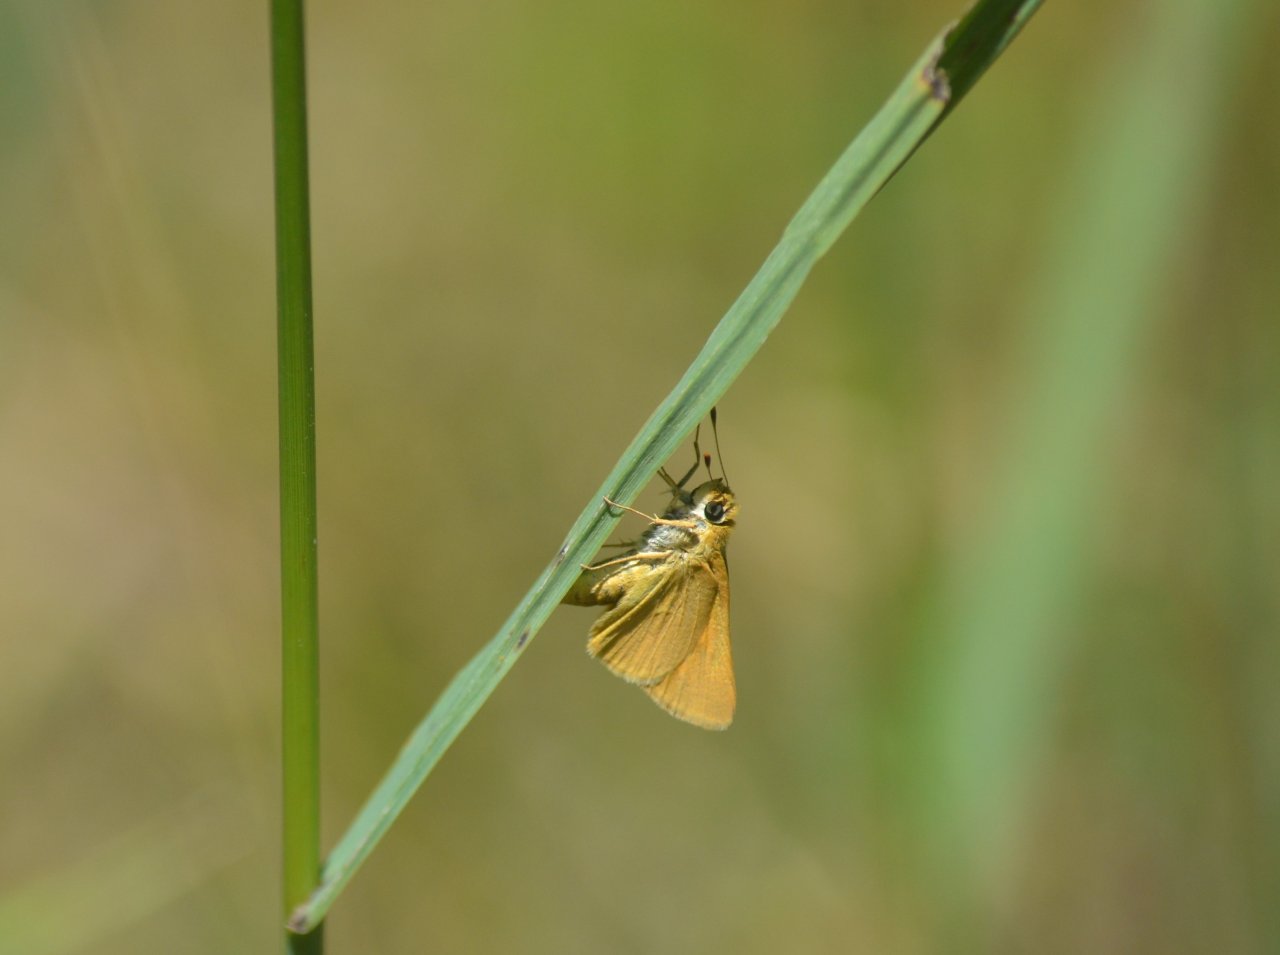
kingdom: Animalia
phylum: Arthropoda
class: Insecta
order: Lepidoptera
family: Hesperiidae
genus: Atrytone
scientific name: Atrytone delaware
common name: Delaware Skipper
